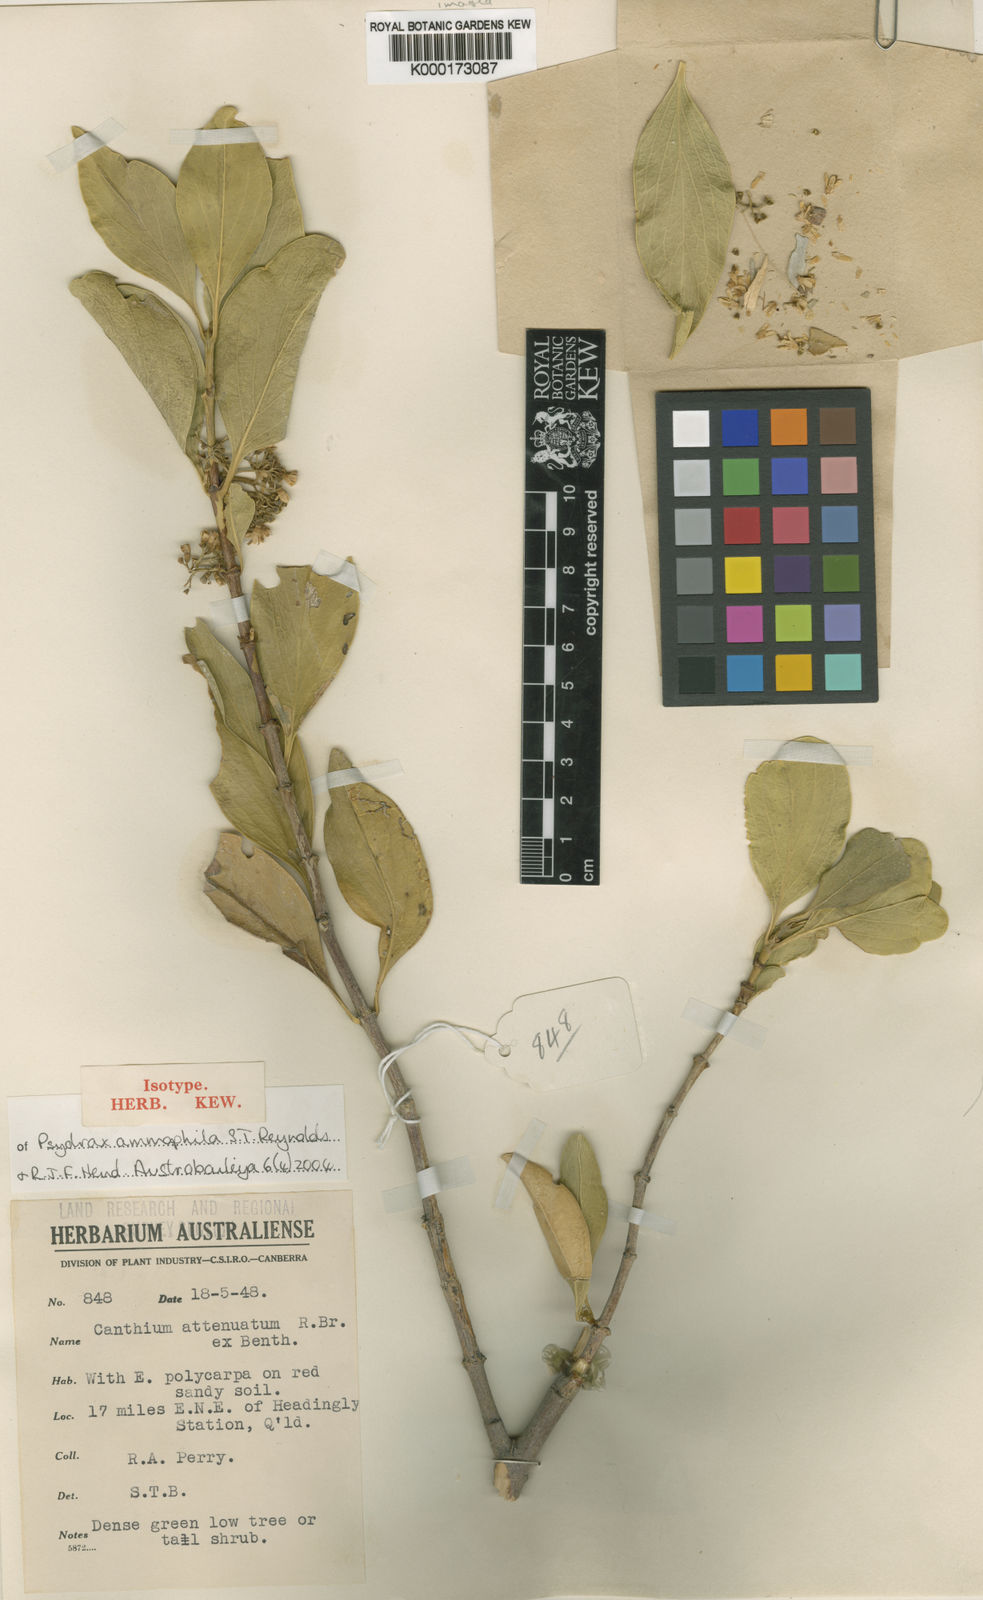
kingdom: Plantae
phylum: Tracheophyta
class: Magnoliopsida
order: Gentianales
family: Rubiaceae
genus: Psydrax
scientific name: Psydrax ammophilus
